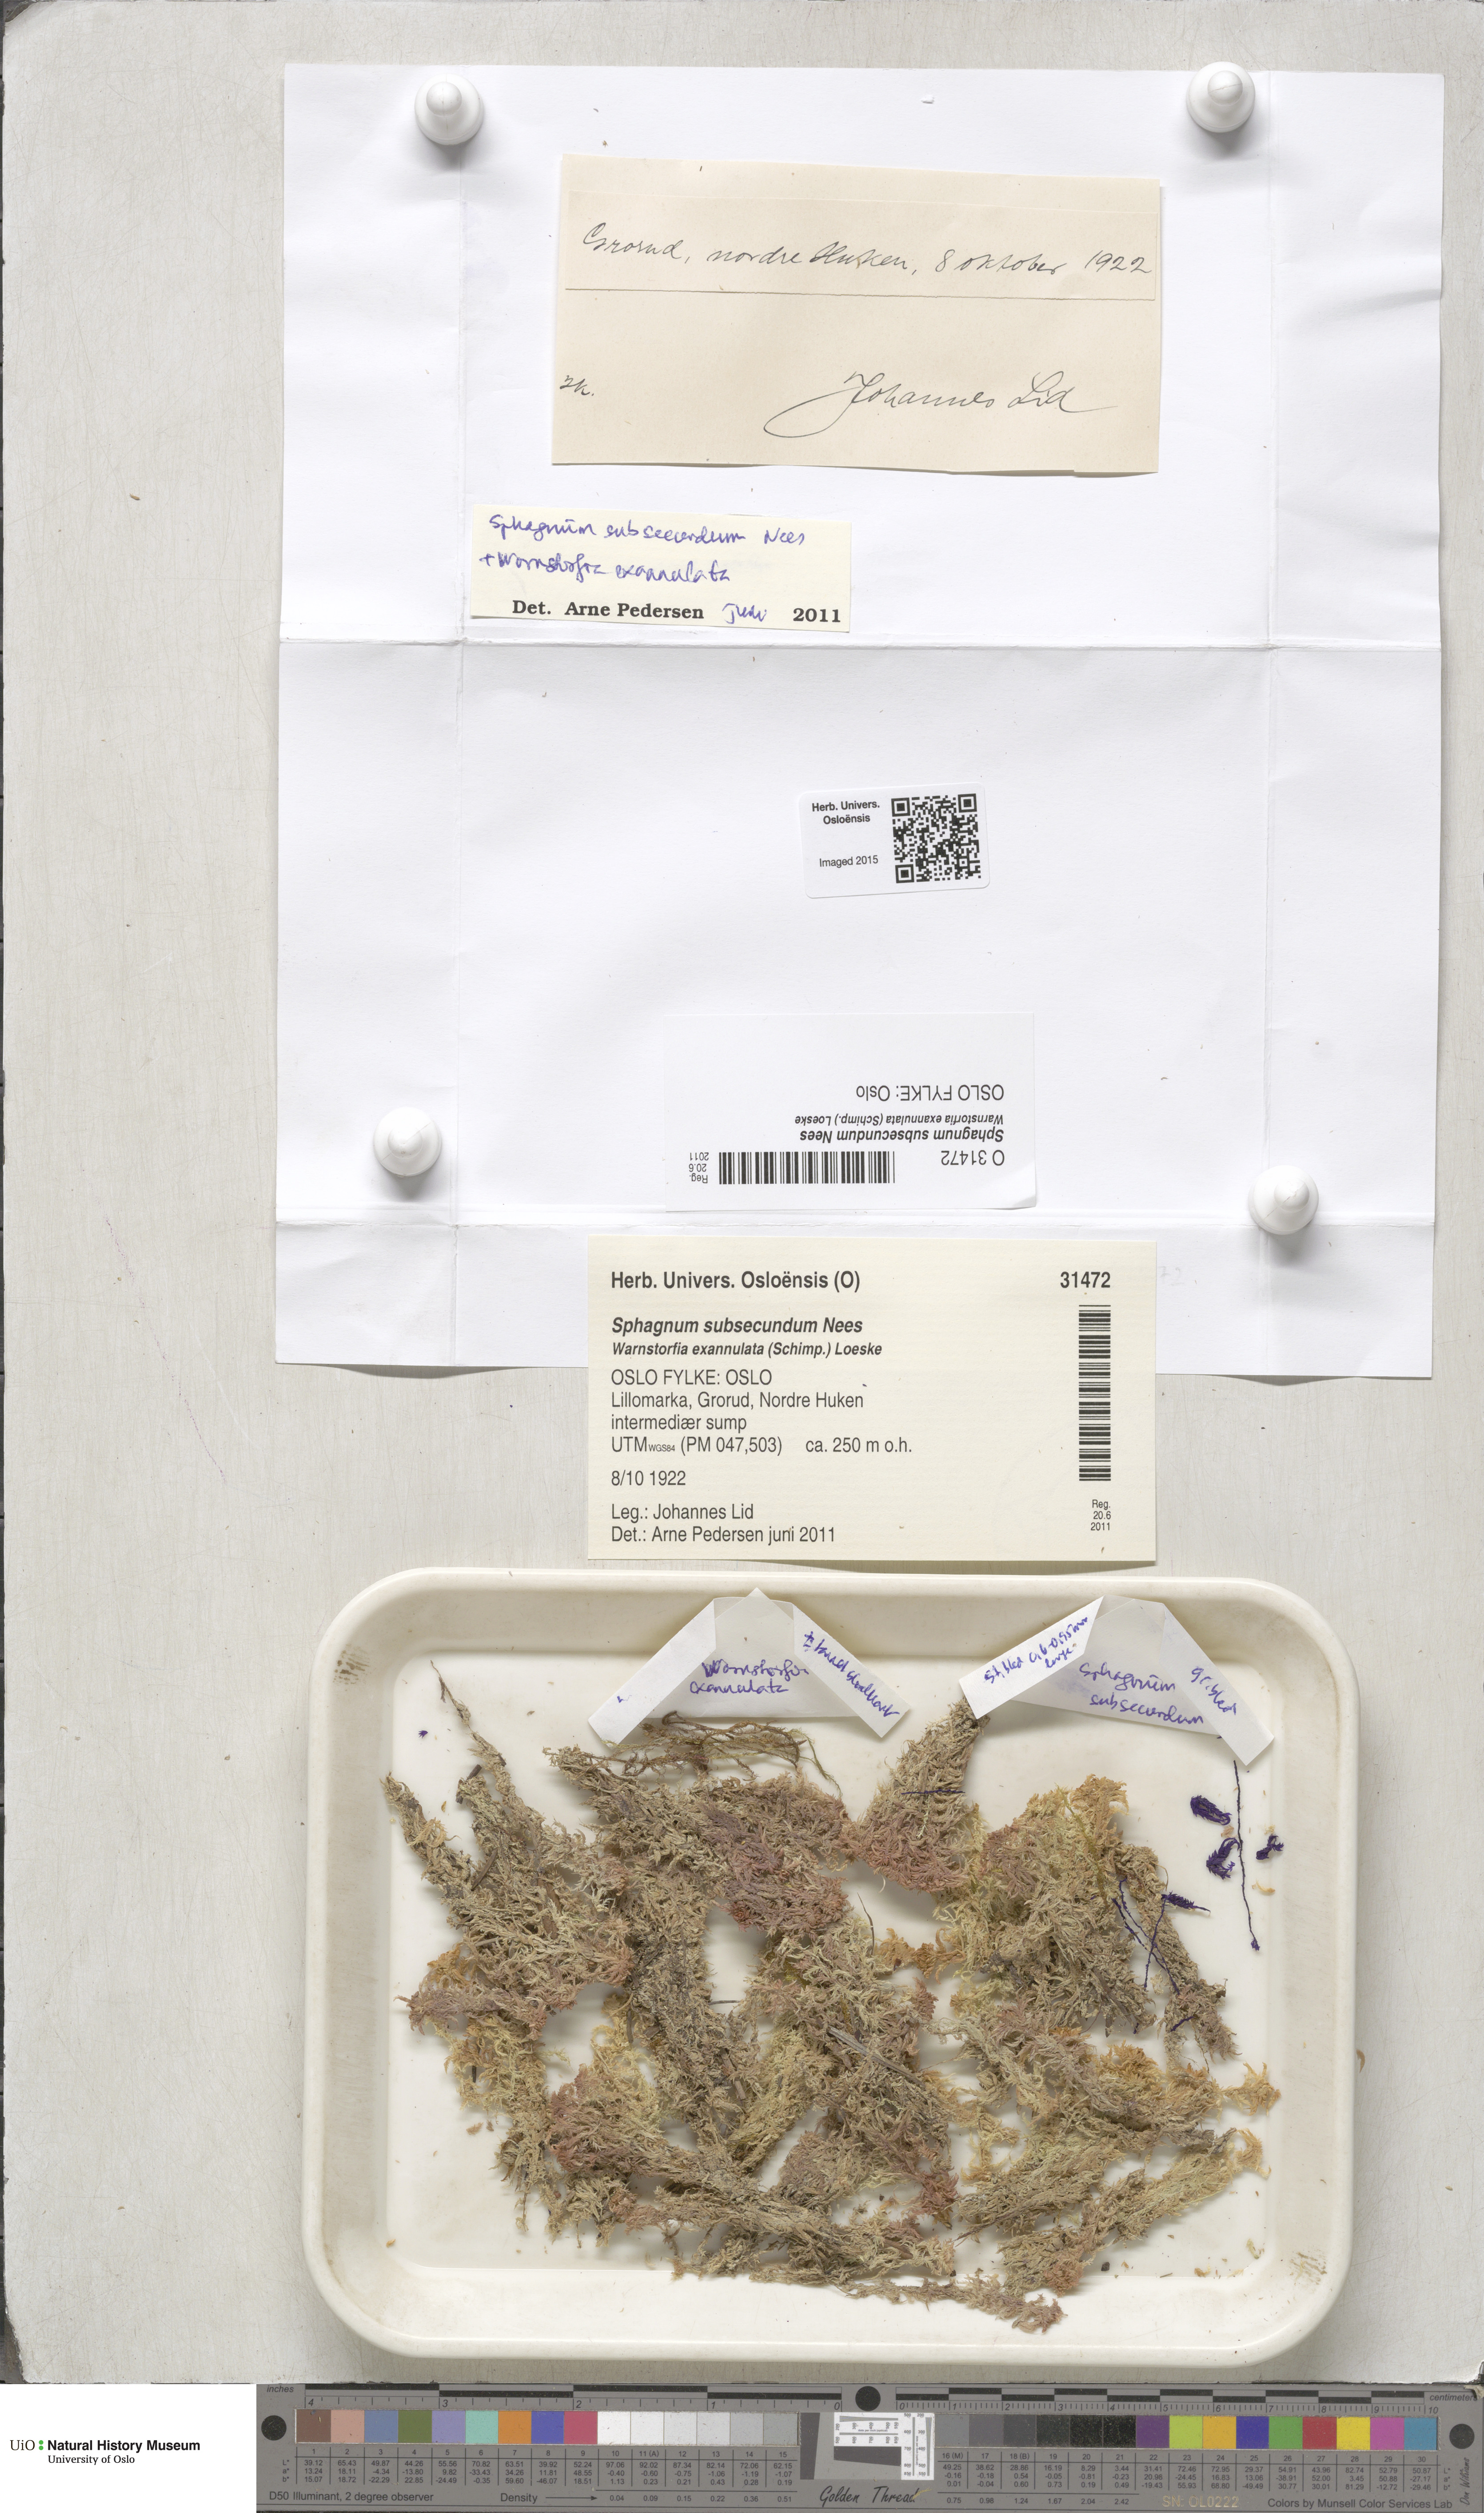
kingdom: Plantae
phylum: Bryophyta
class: Sphagnopsida
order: Sphagnales
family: Sphagnaceae
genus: Sphagnum
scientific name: Sphagnum subsecundum
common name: Orange peat moss
